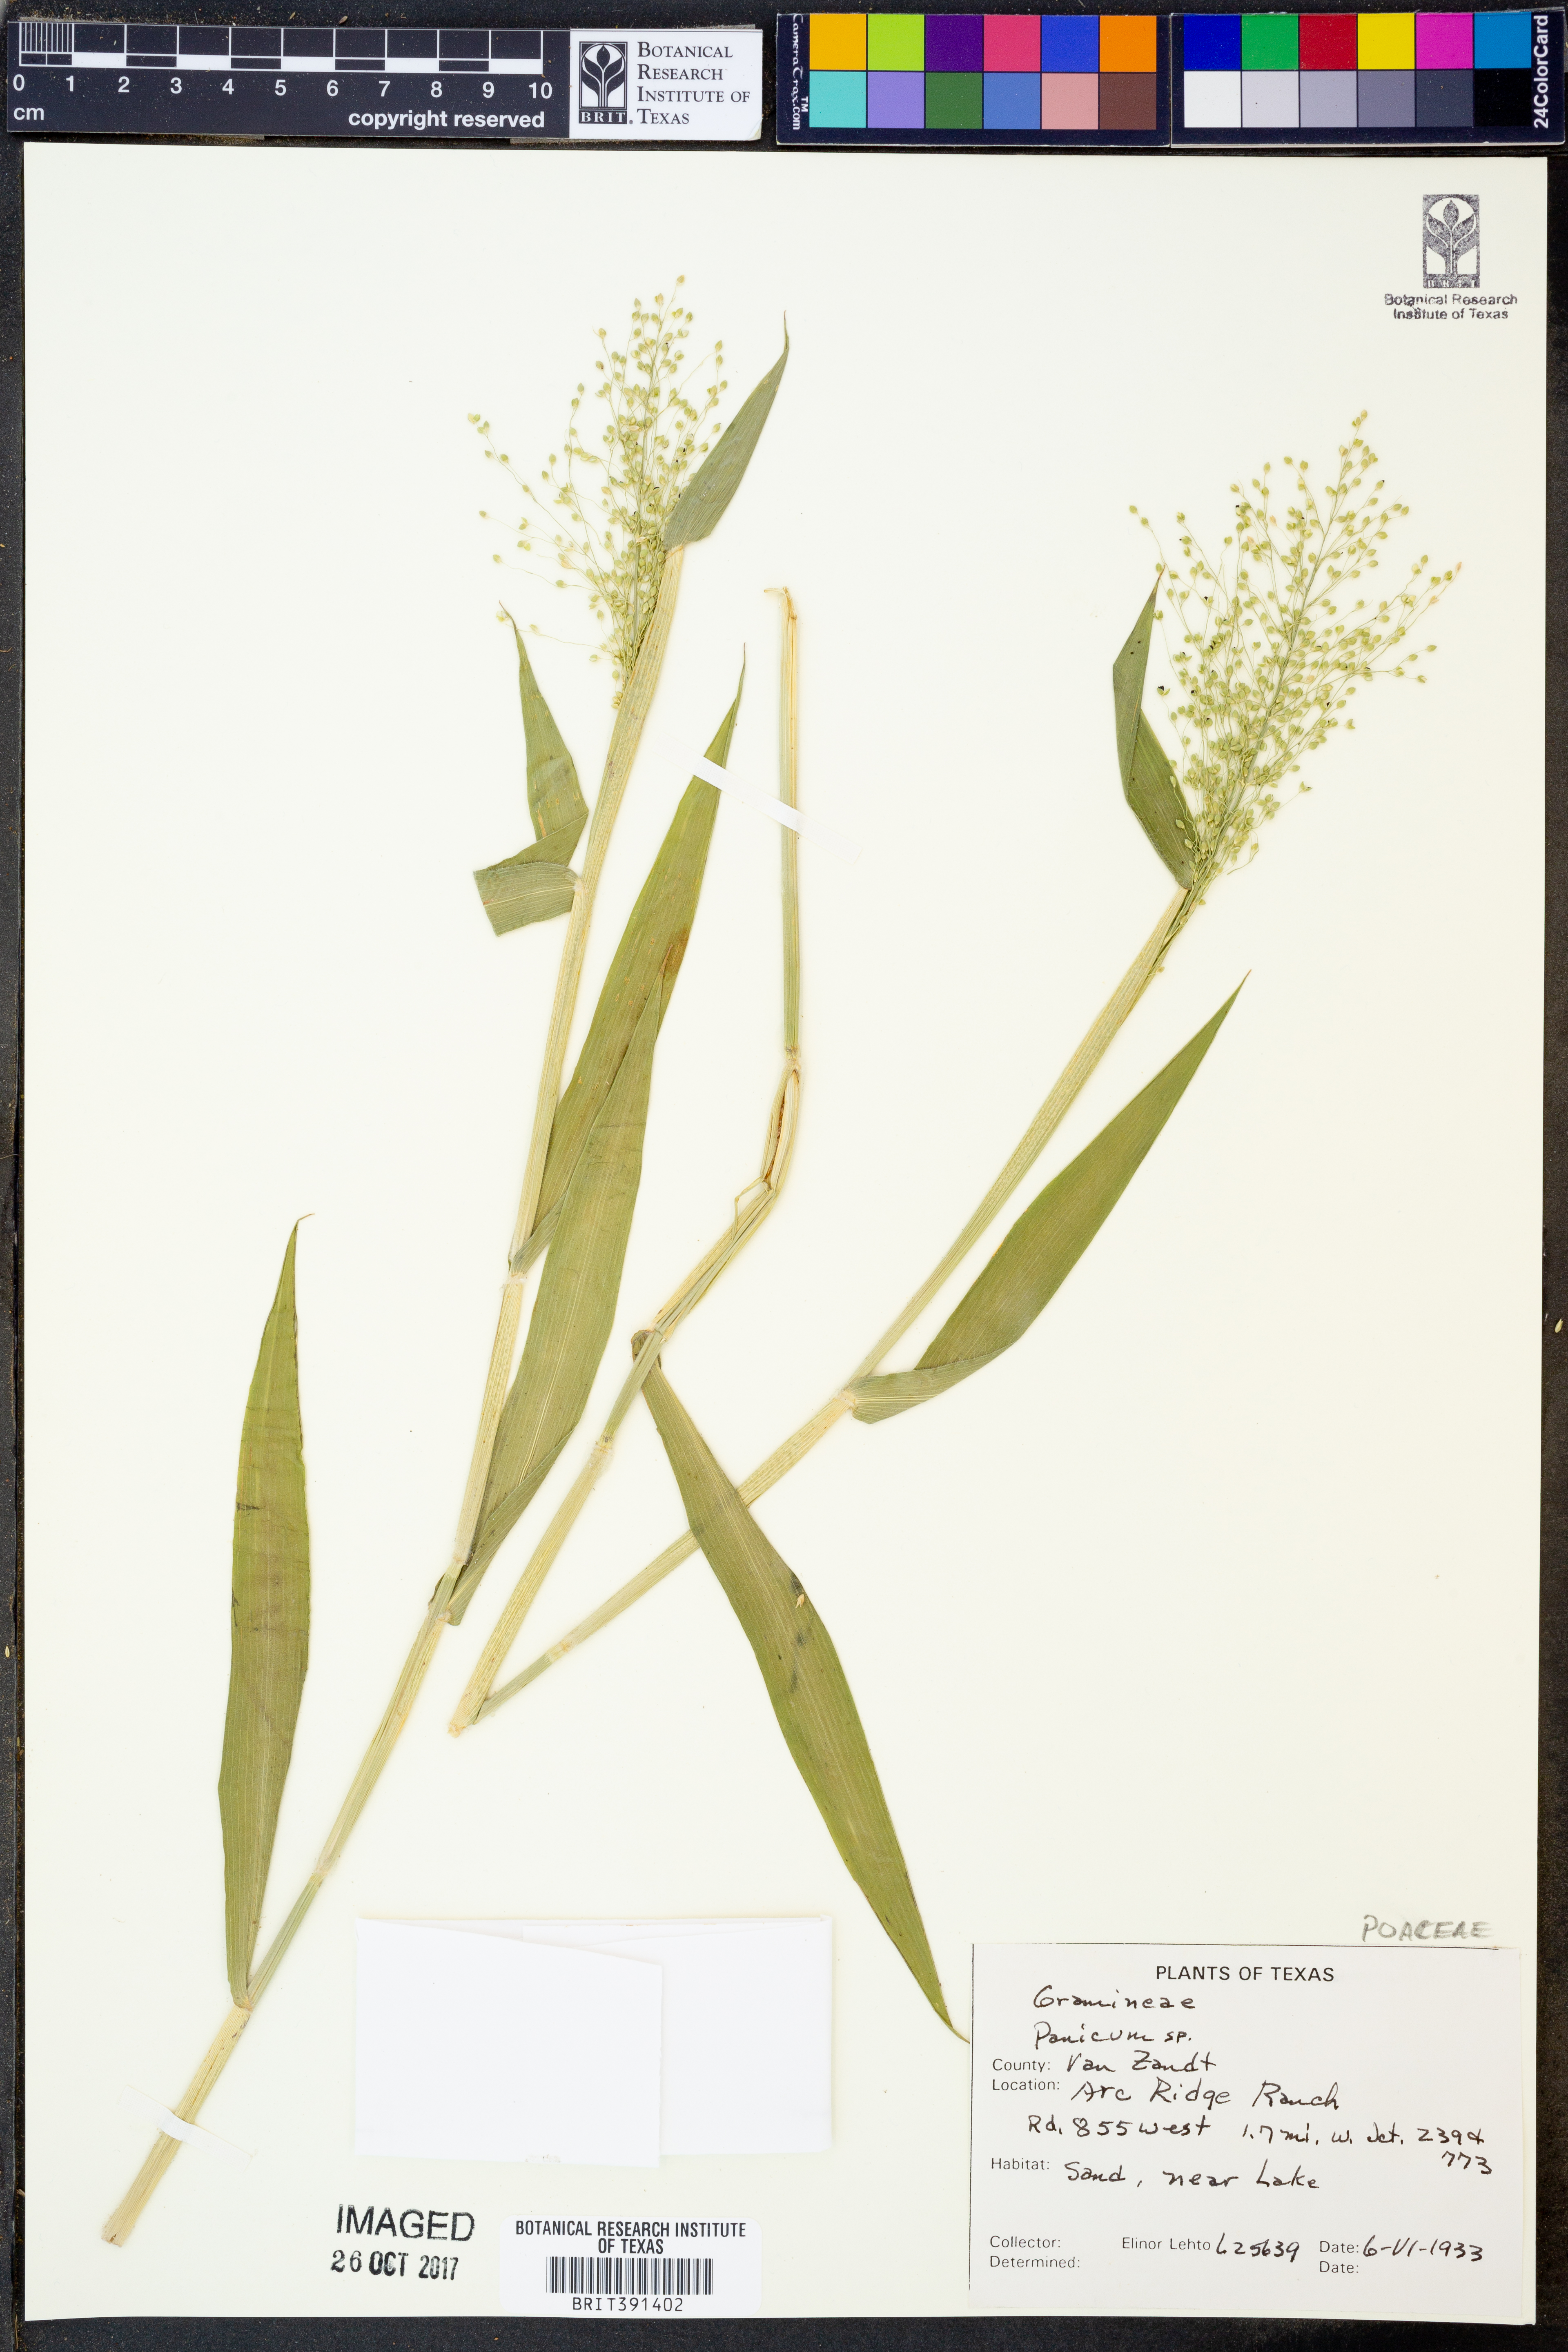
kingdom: Plantae
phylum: Tracheophyta
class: Liliopsida
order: Poales
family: Poaceae
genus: Panicum
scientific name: Panicum
